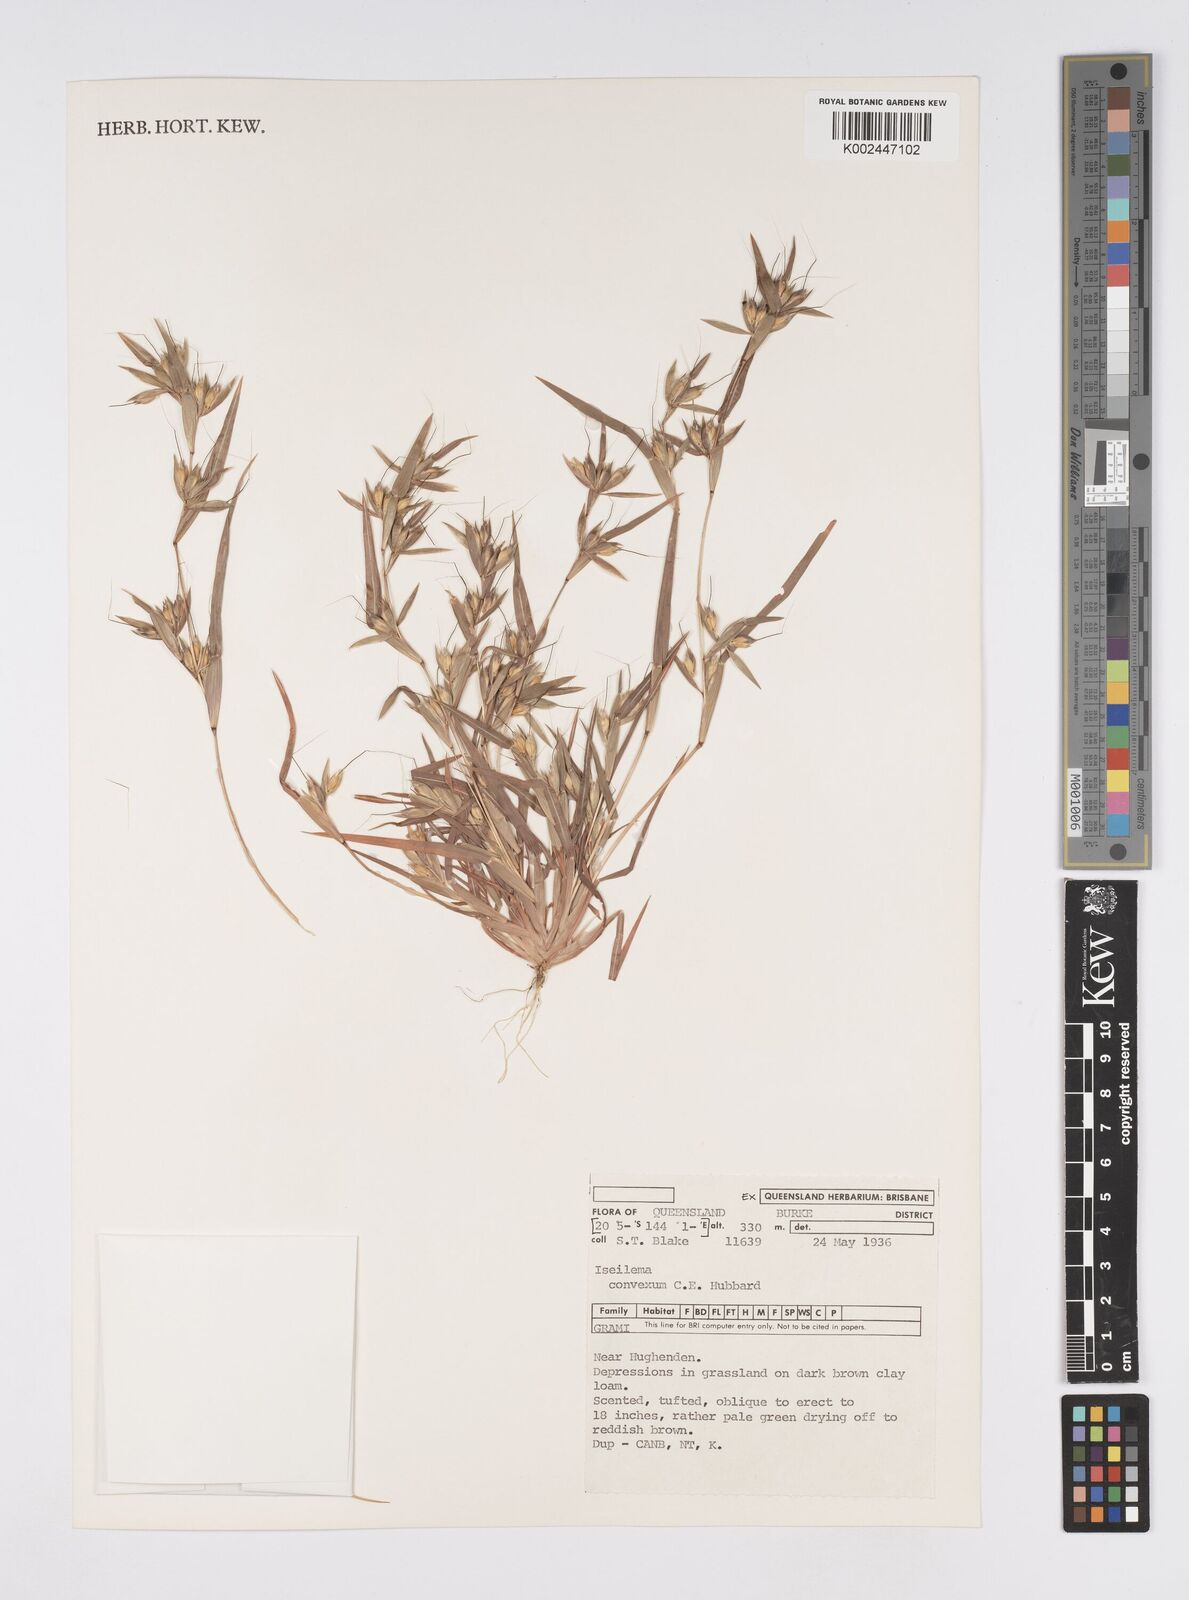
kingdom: Plantae
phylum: Tracheophyta
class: Liliopsida
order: Poales
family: Poaceae
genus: Iseilema
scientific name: Iseilema convexum
